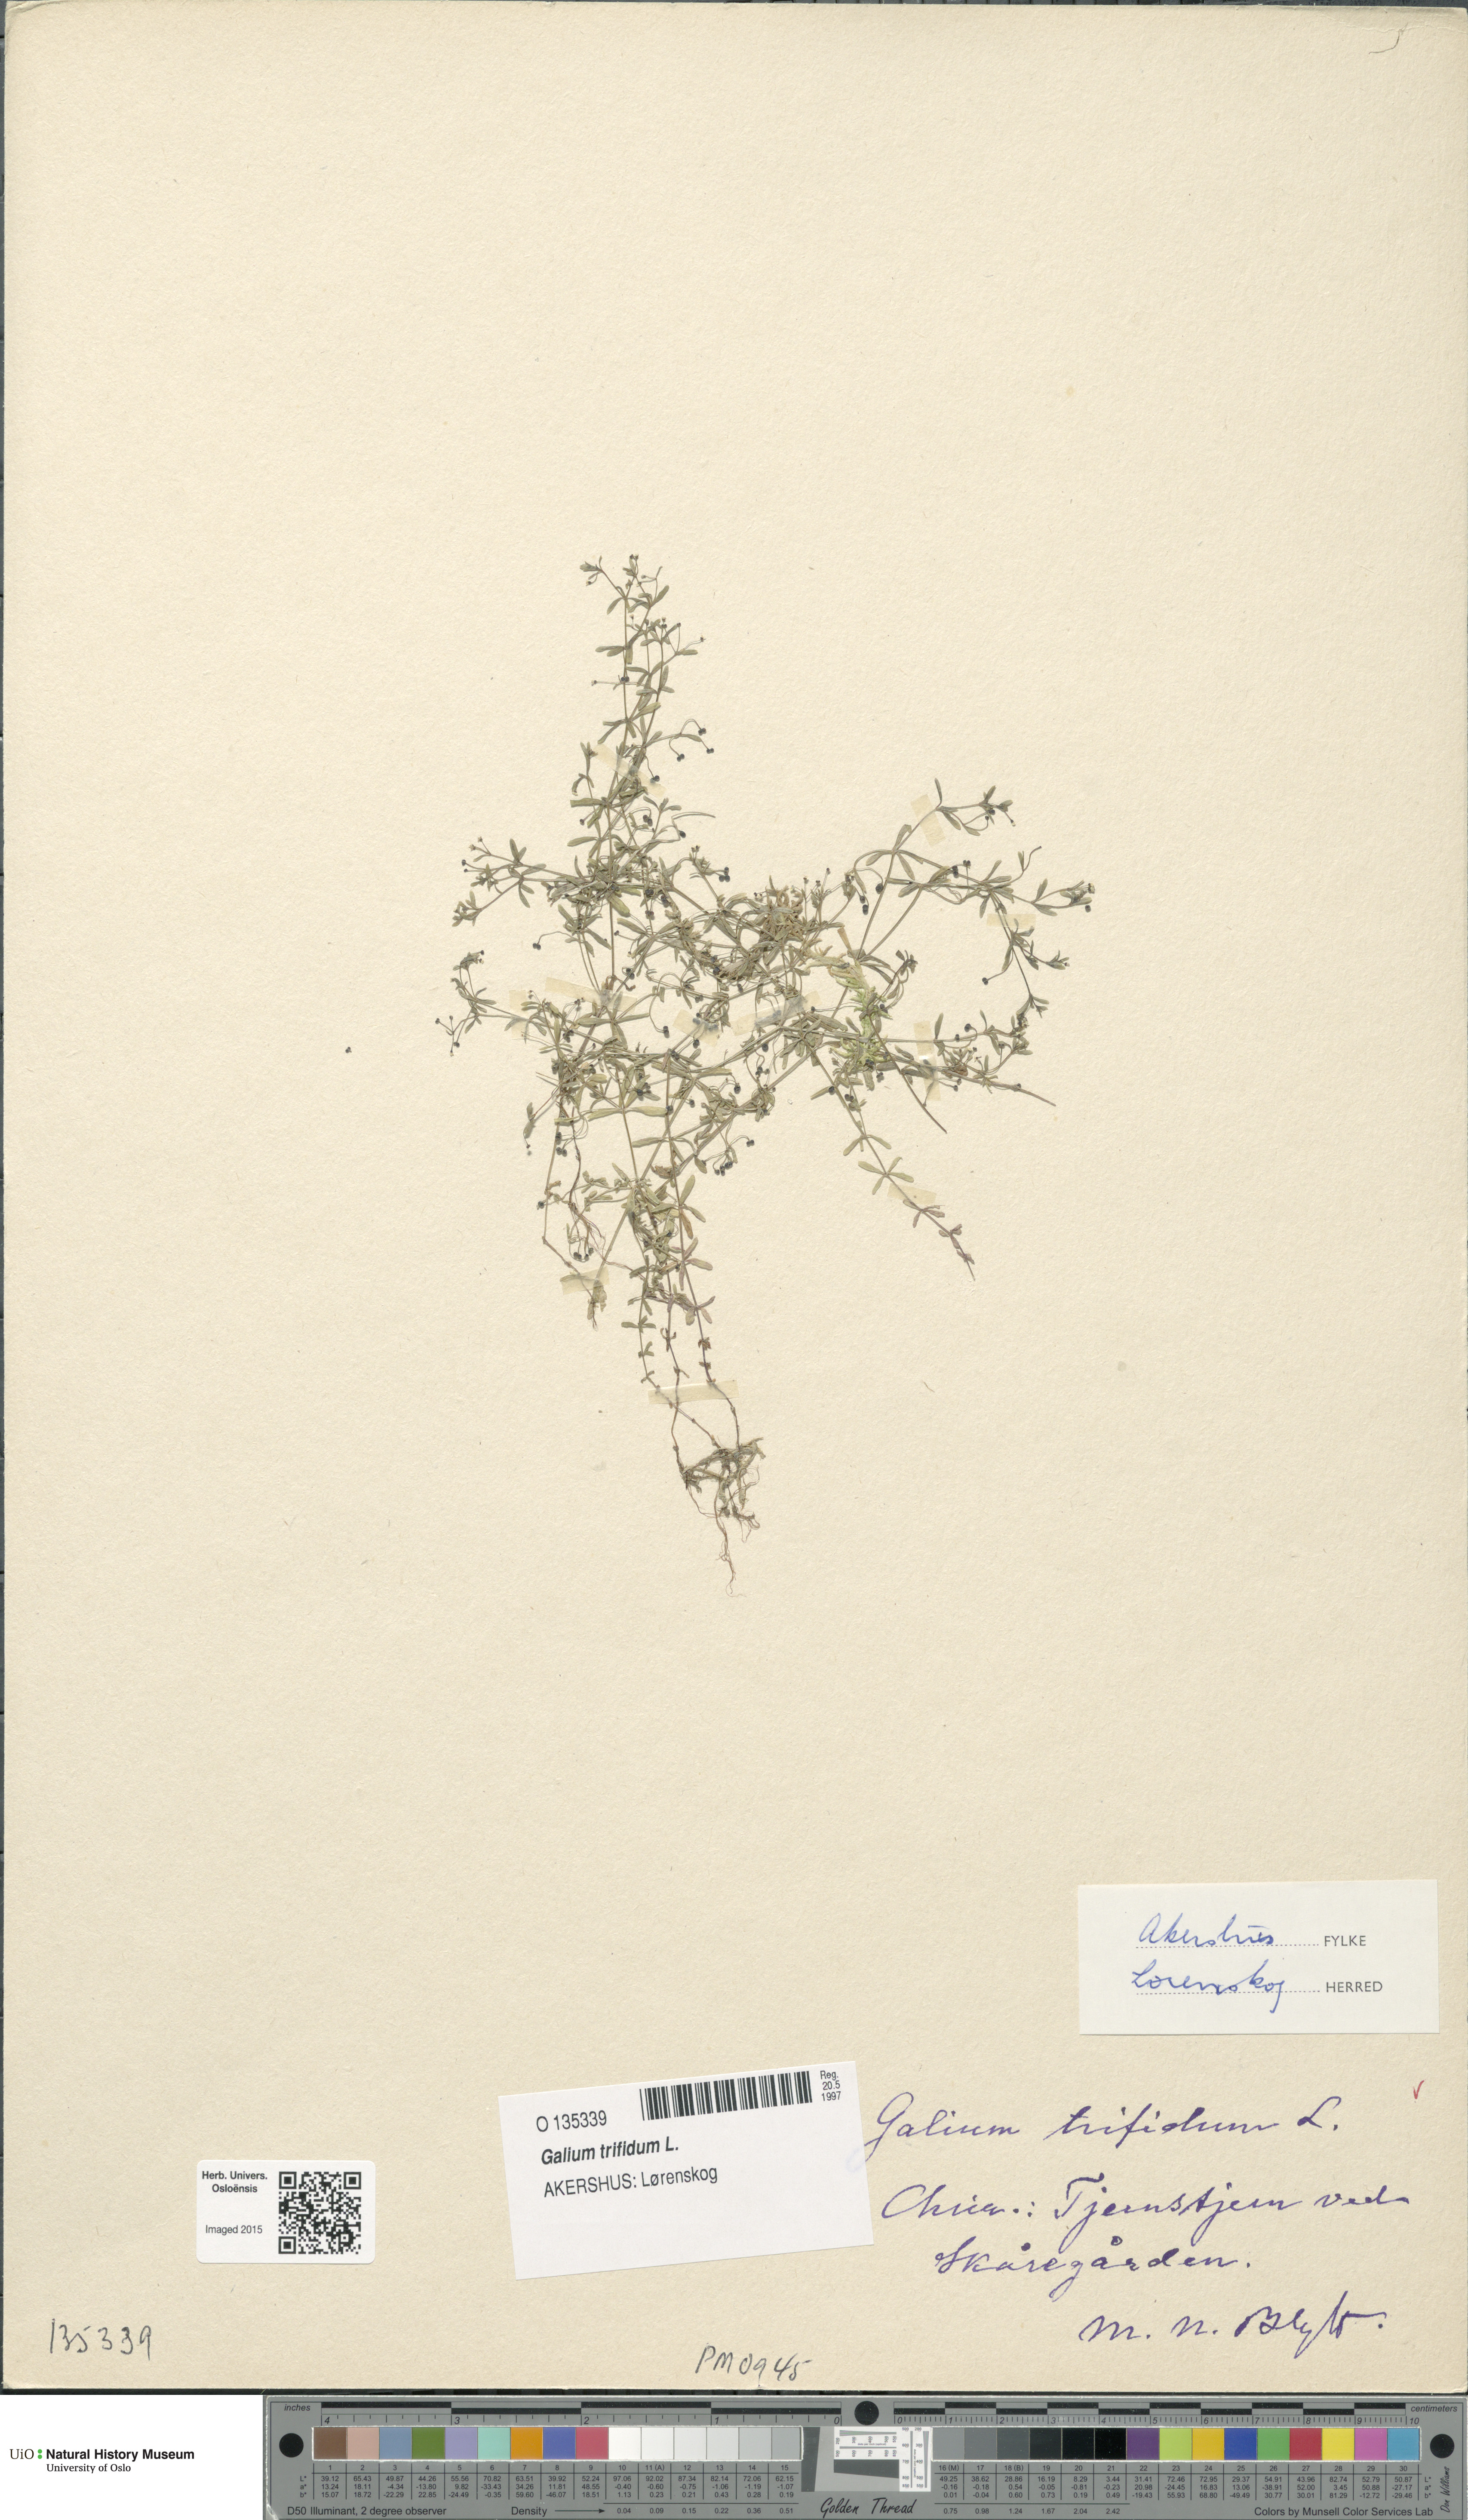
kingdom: Plantae
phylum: Tracheophyta
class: Magnoliopsida
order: Gentianales
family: Rubiaceae
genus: Galium
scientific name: Galium trifidum
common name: Small bedstraw
